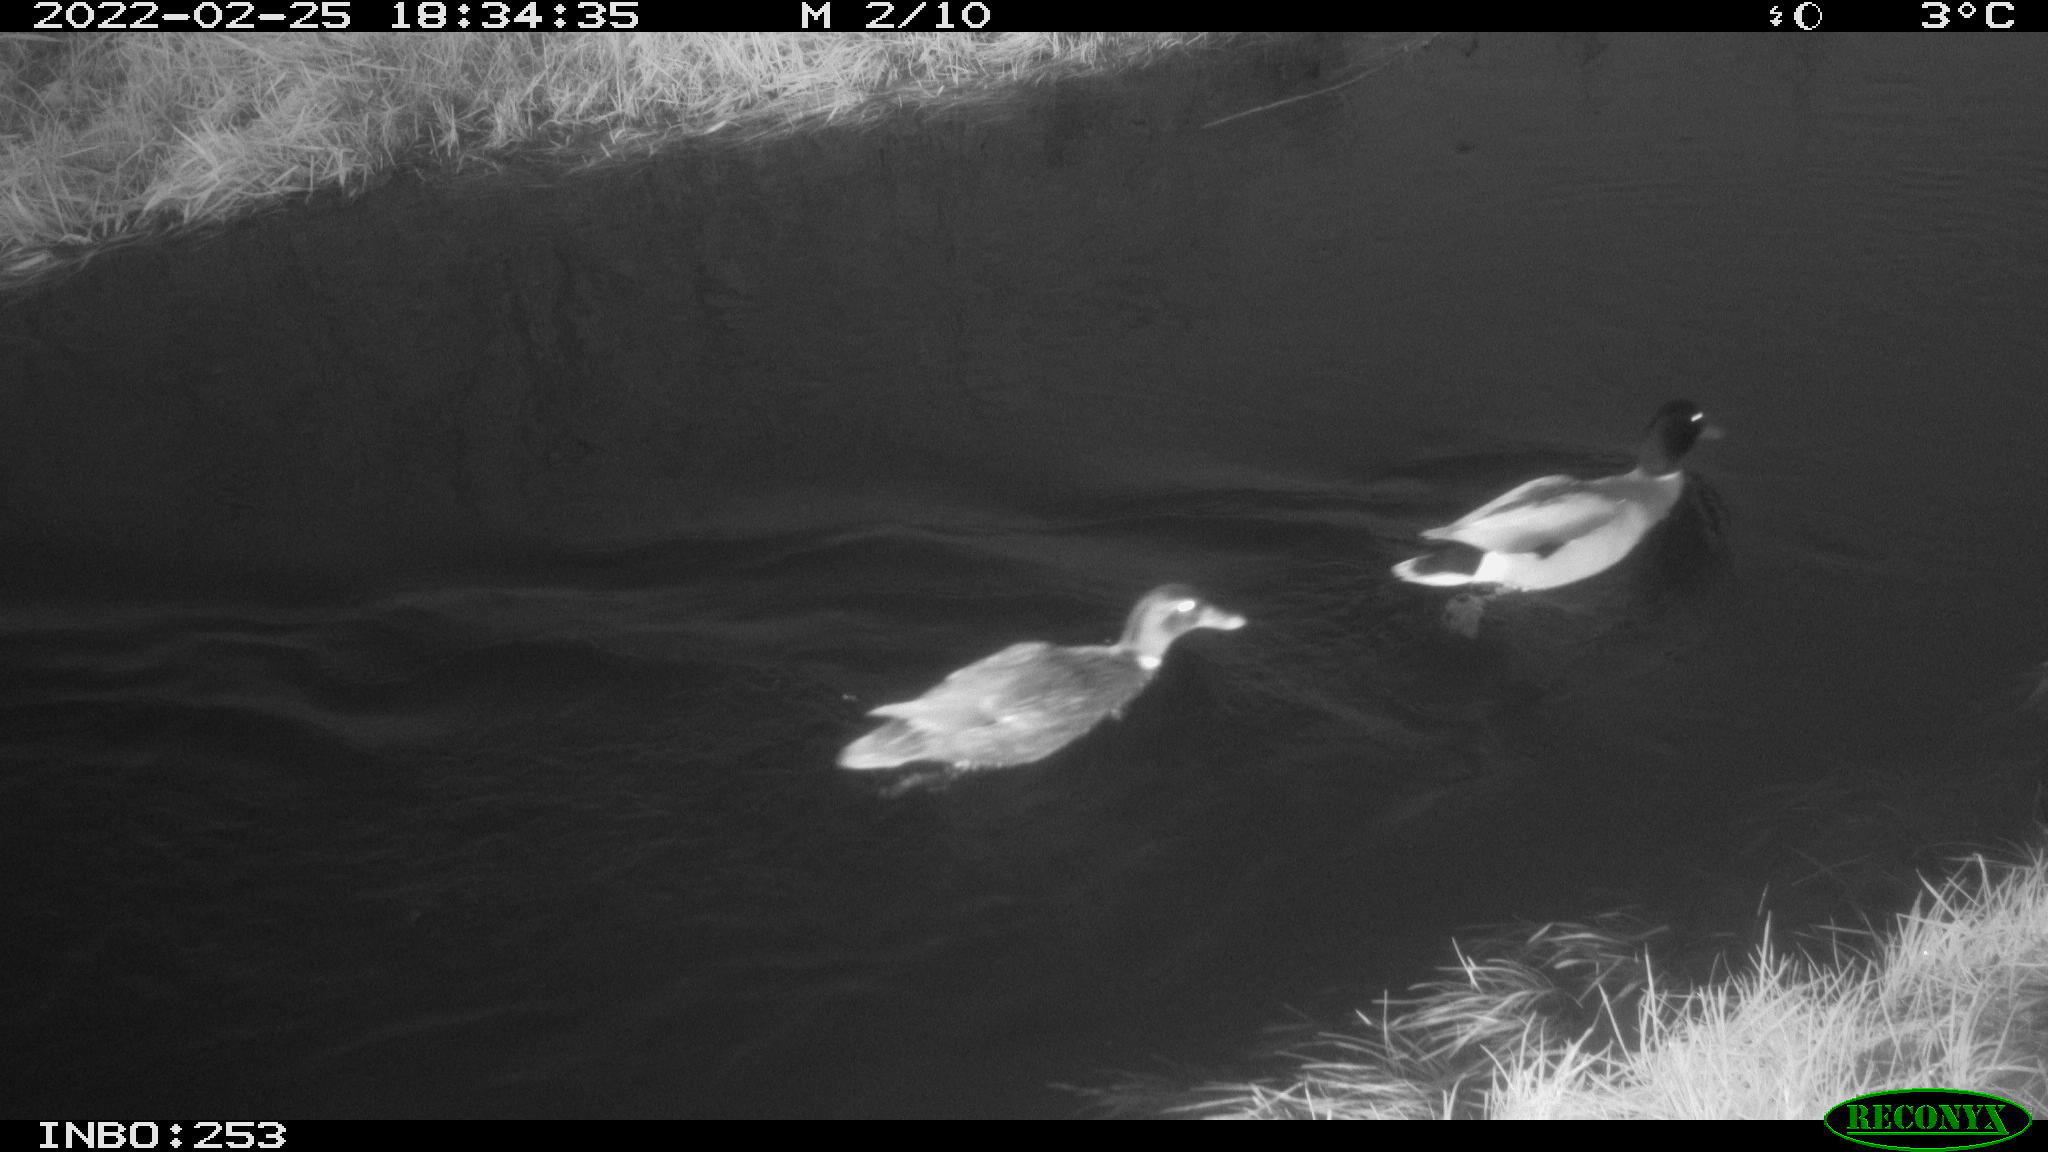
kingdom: Animalia
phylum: Chordata
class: Aves
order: Anseriformes
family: Anatidae
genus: Anas
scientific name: Anas platyrhynchos
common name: Mallard
